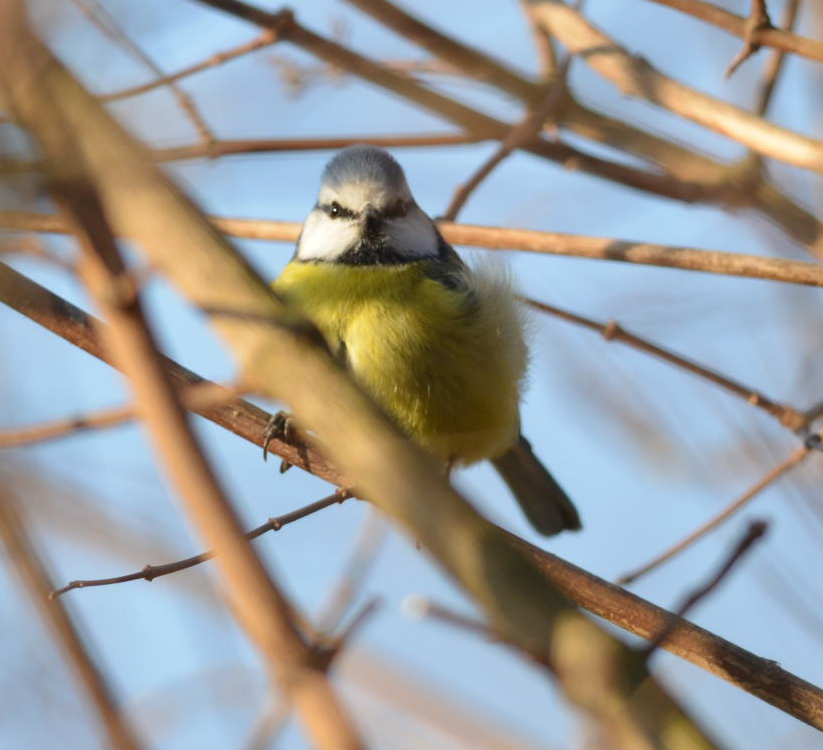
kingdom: Animalia
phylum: Chordata
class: Aves
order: Passeriformes
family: Paridae
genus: Cyanistes
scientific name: Cyanistes caeruleus
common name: Eurasian blue tit
